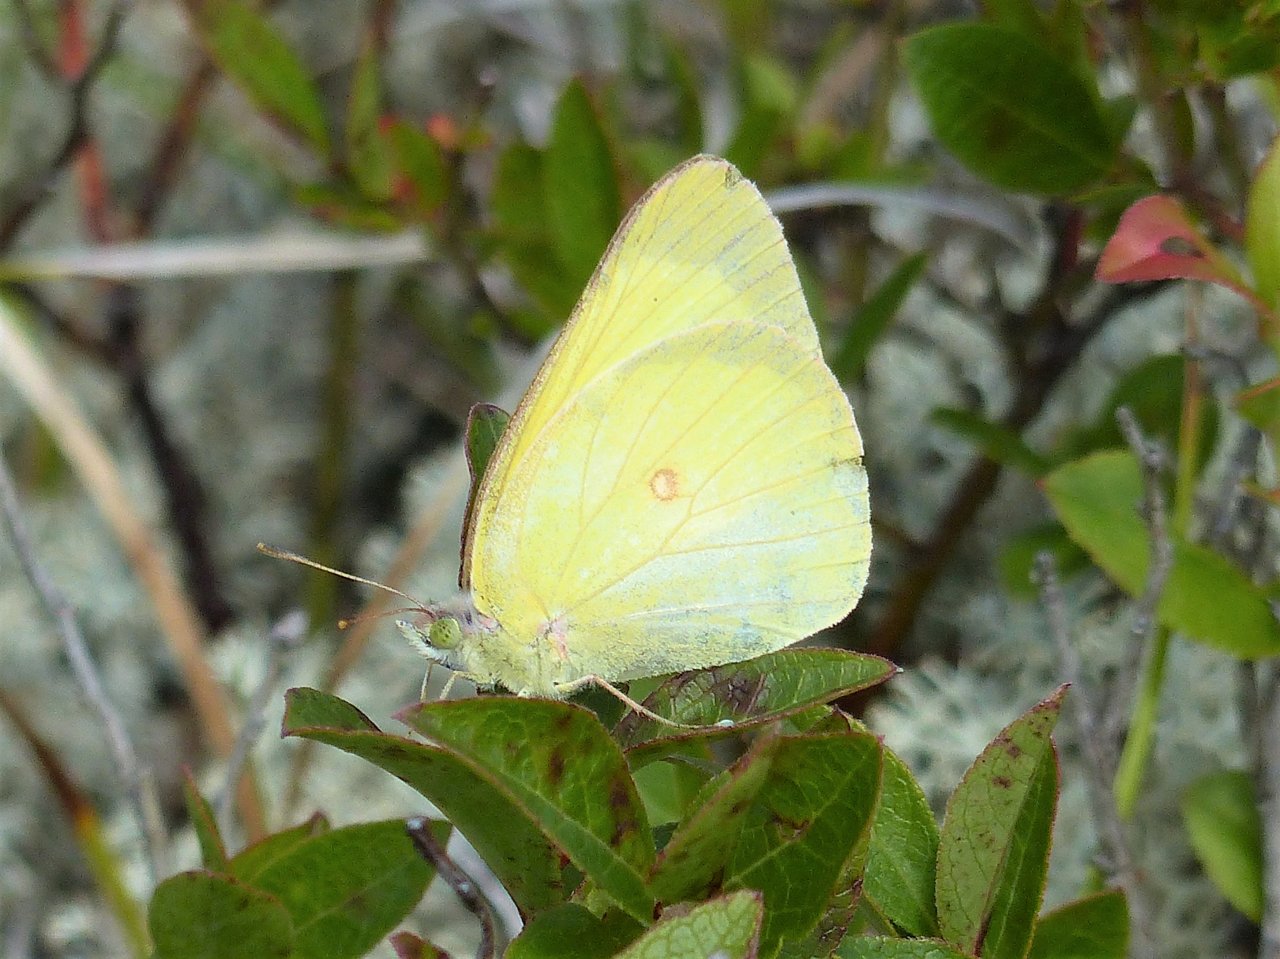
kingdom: Animalia
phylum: Arthropoda
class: Insecta
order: Lepidoptera
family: Pieridae
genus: Colias
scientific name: Colias interior
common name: Pink-edged Sulphur
